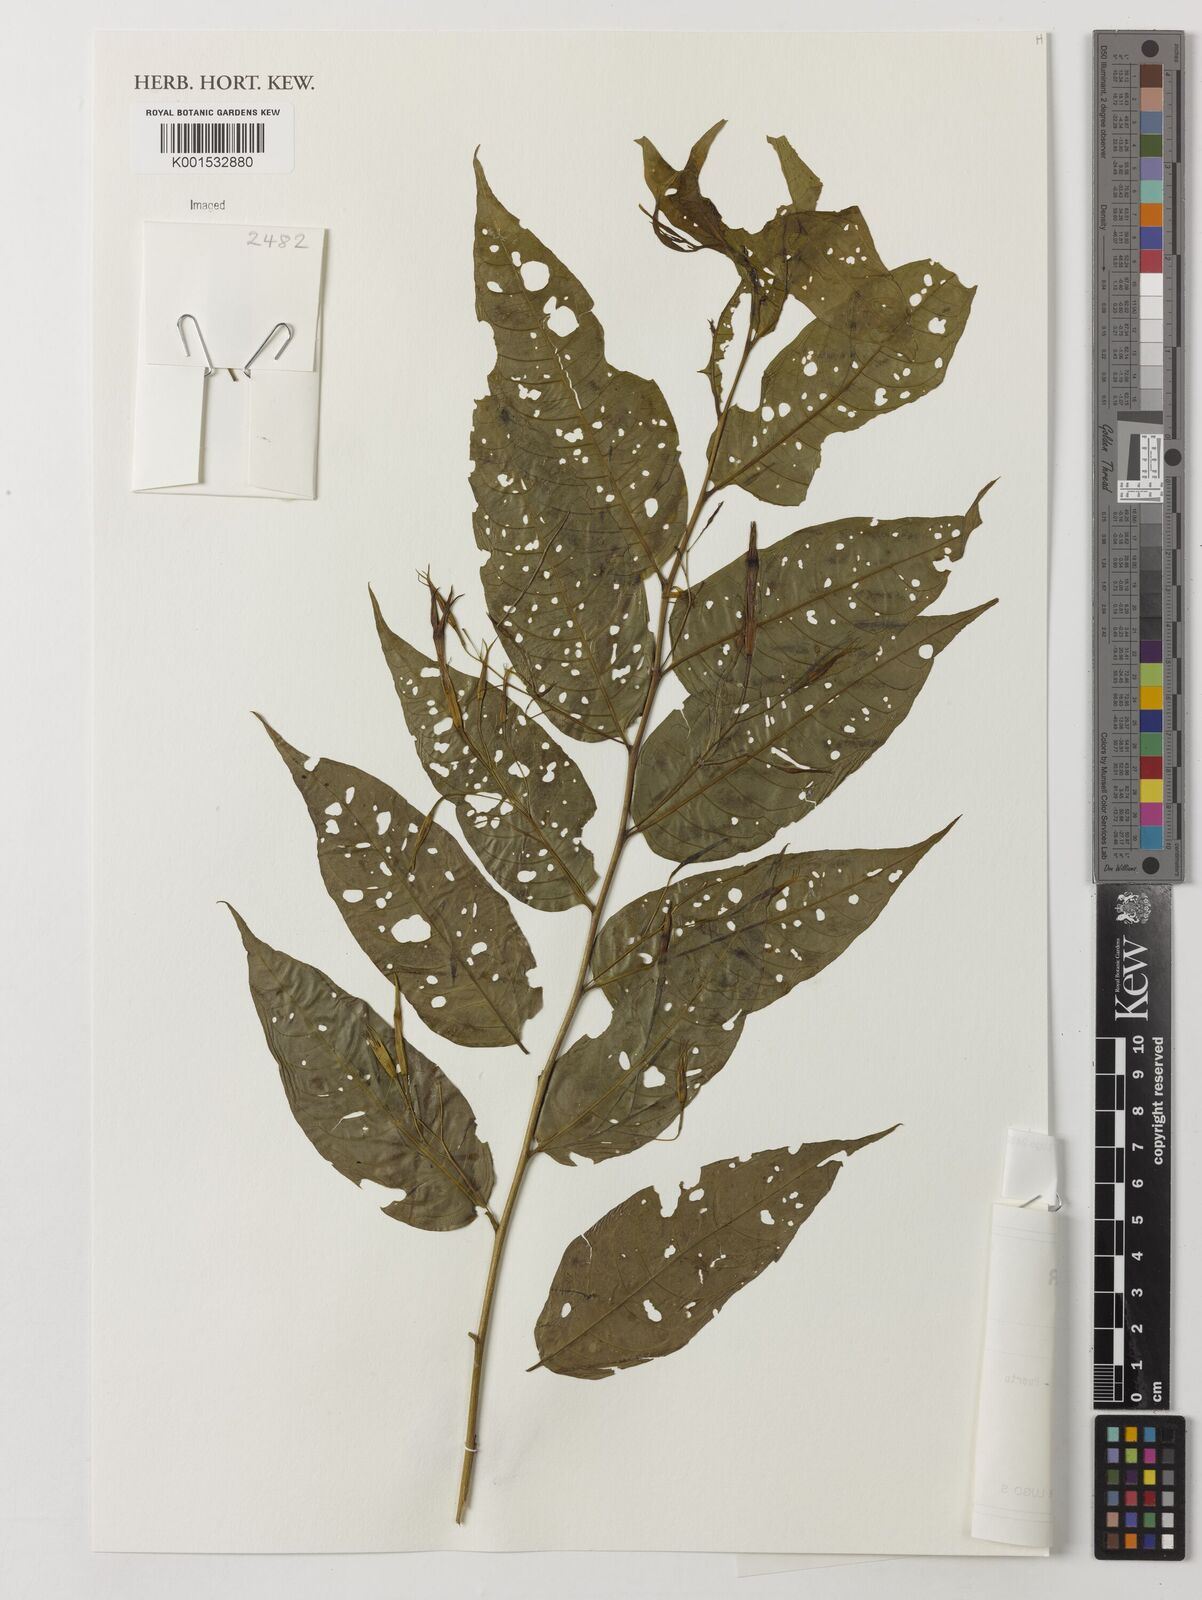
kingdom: Plantae
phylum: Tracheophyta
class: Magnoliopsida
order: Solanales
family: Solanaceae
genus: Cestrum
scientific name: Cestrum
